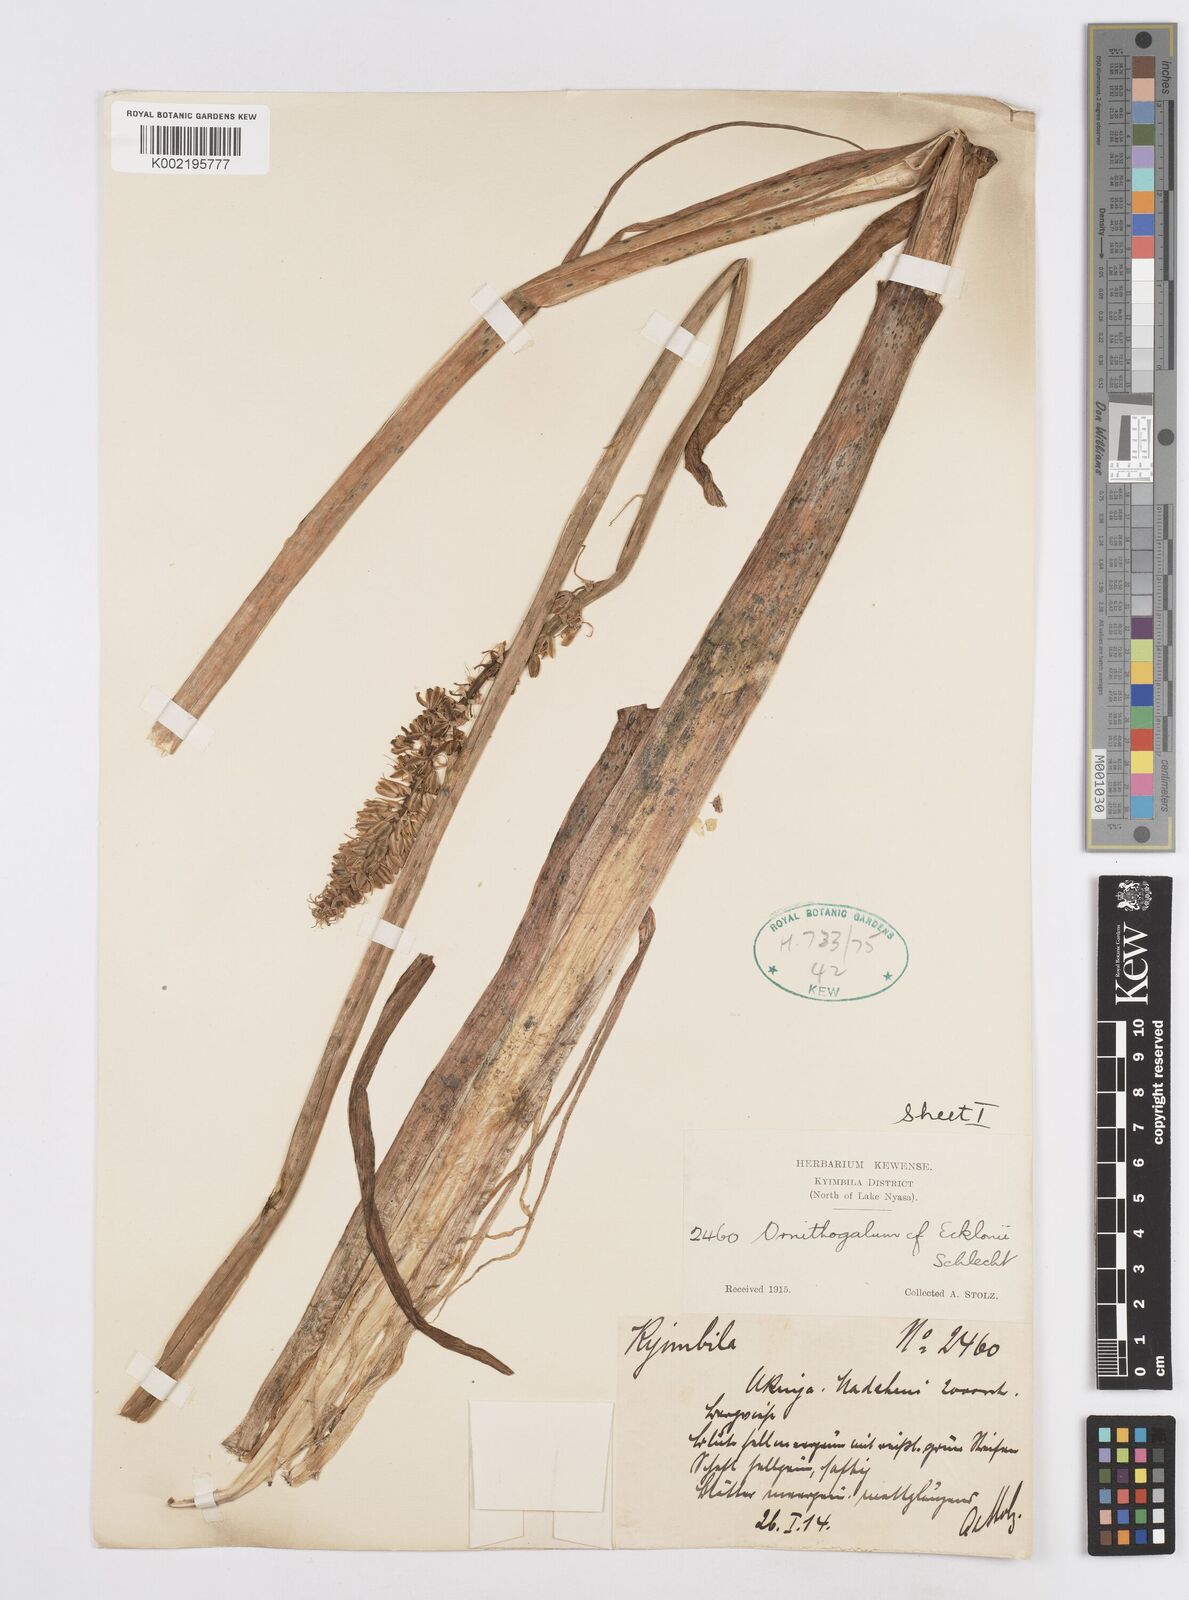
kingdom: Plantae
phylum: Tracheophyta
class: Liliopsida
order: Asparagales
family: Asparagaceae
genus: Albuca
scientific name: Albuca virens
